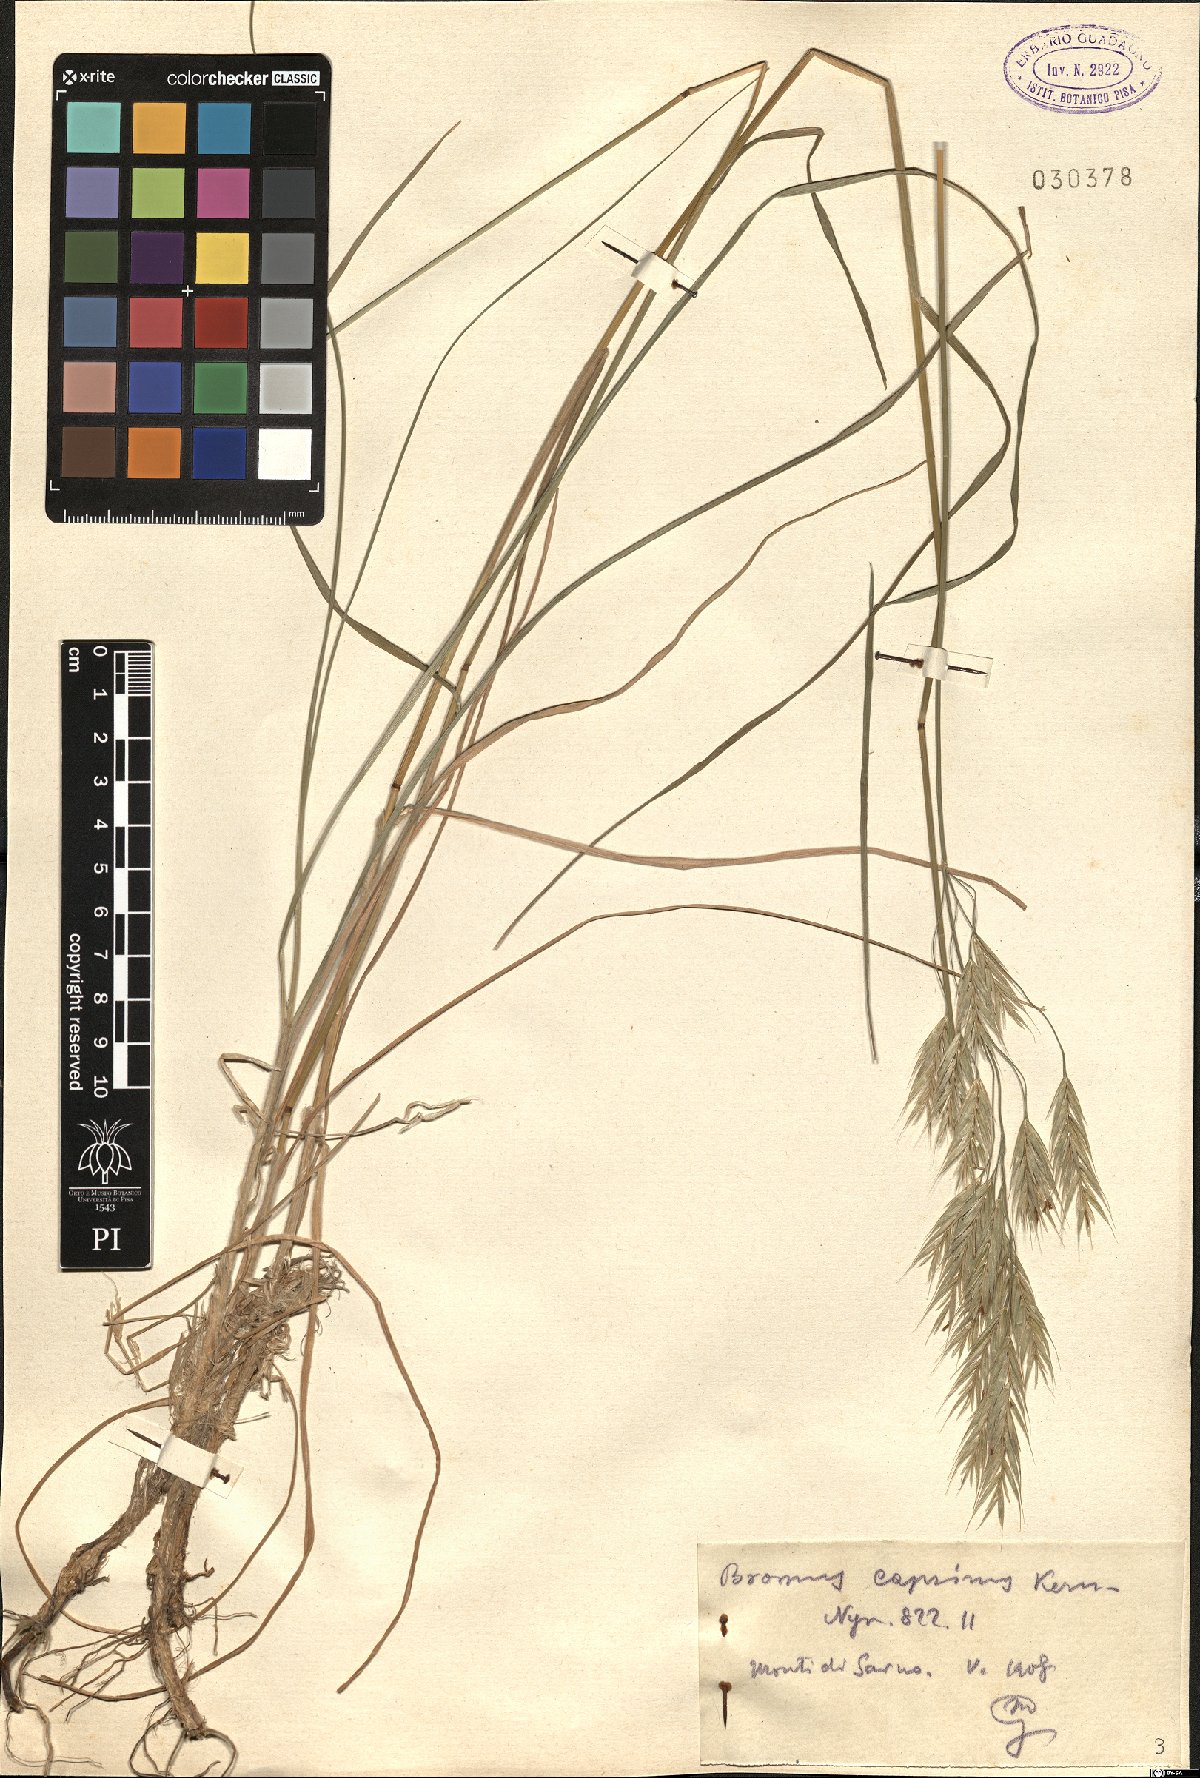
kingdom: Plantae
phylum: Tracheophyta
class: Liliopsida
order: Poales
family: Poaceae
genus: Bromus
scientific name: Bromus erectus
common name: Erect brome
